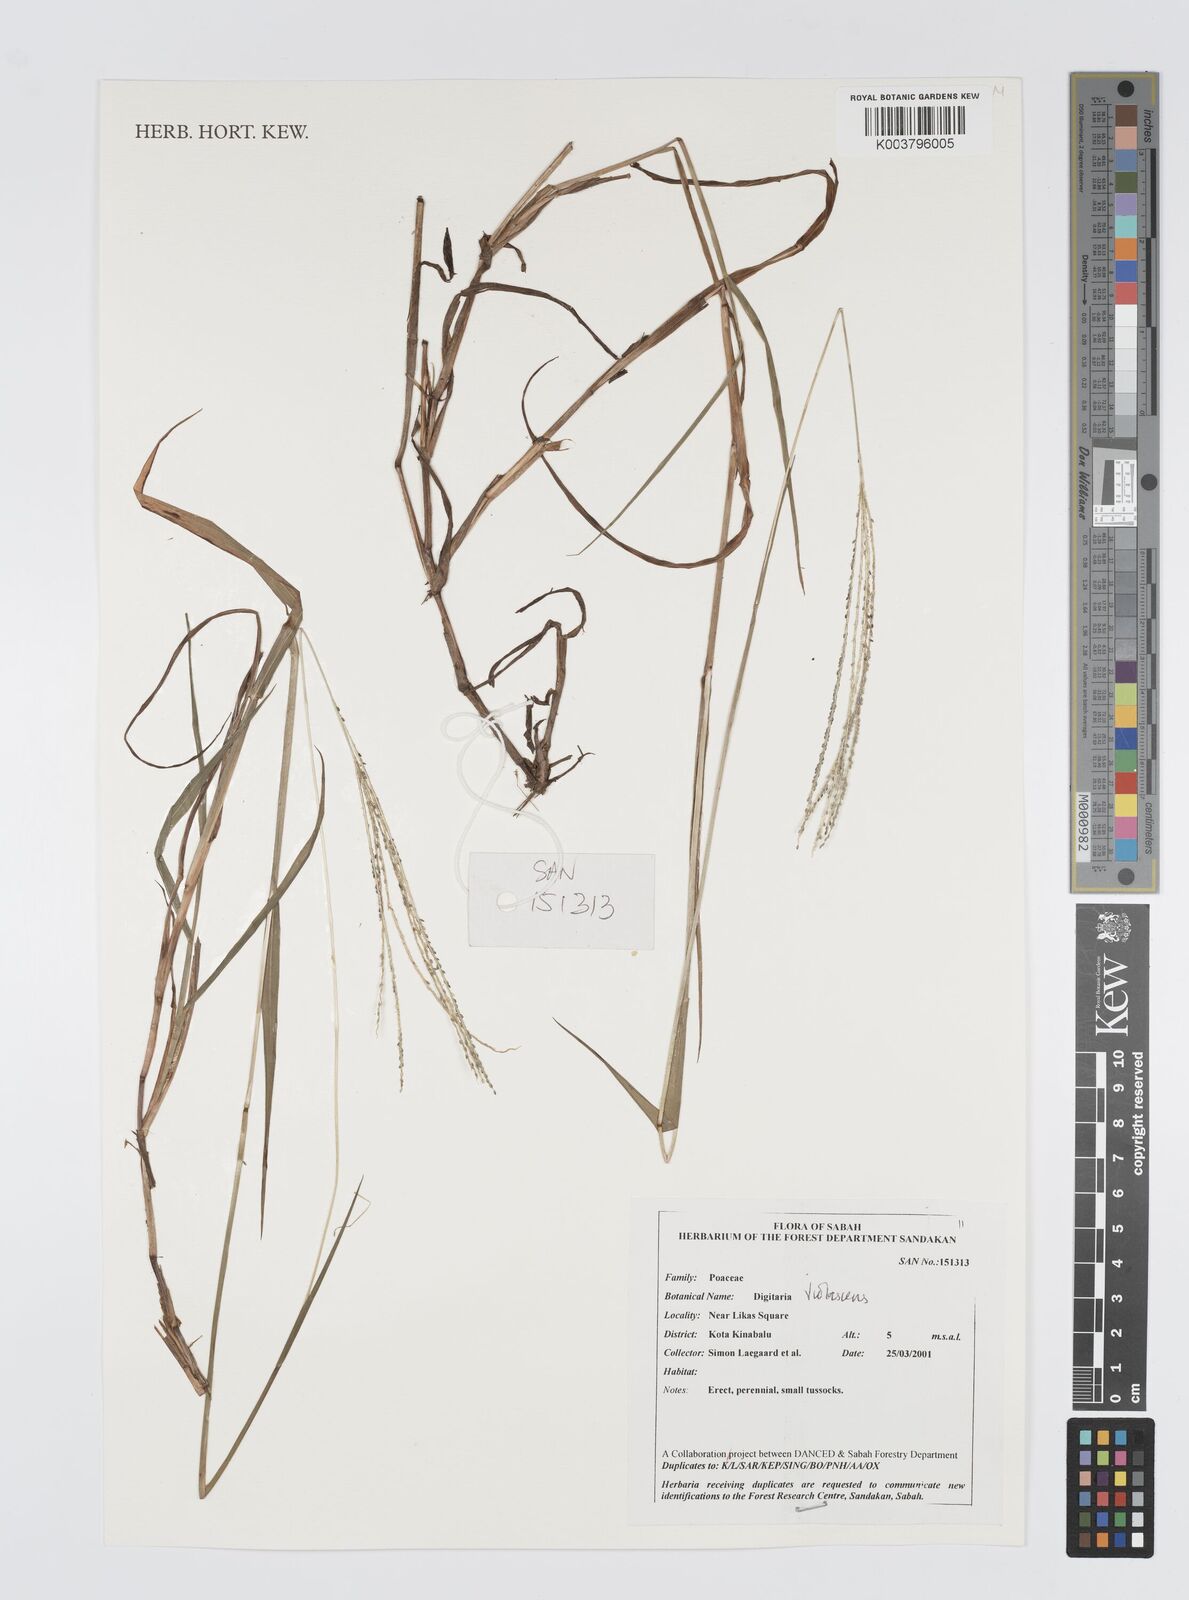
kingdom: Plantae
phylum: Tracheophyta
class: Liliopsida
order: Poales
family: Poaceae
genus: Digitaria
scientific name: Digitaria violascens
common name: Violet crabgrass
